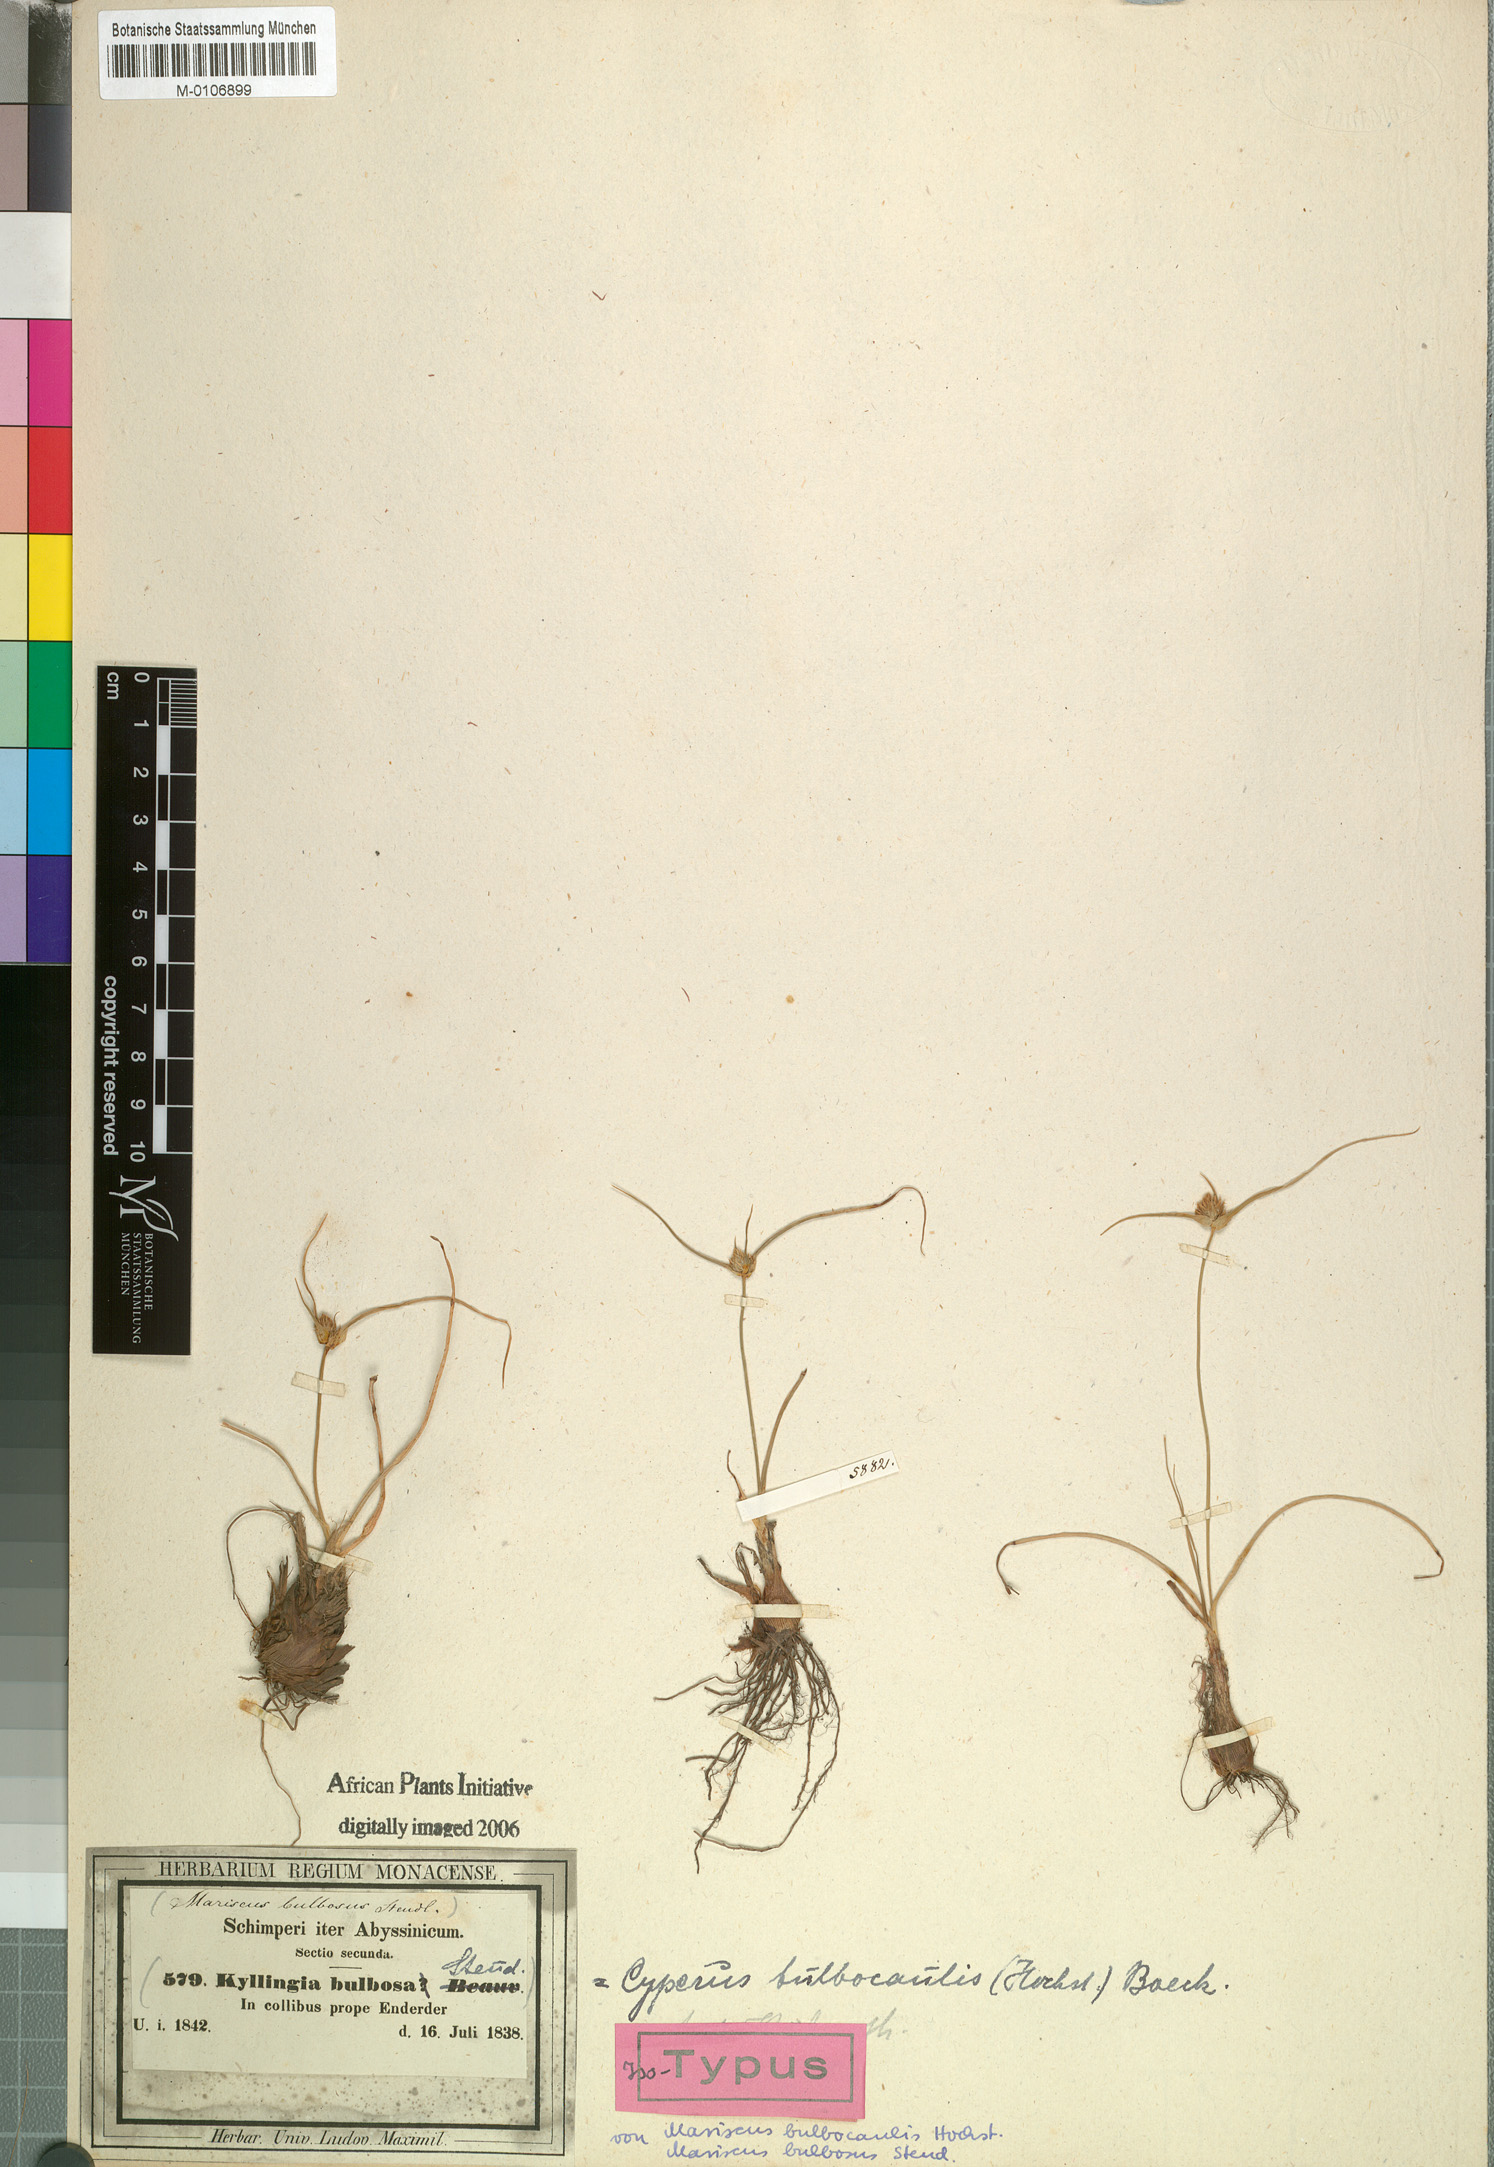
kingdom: Plantae
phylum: Tracheophyta
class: Liliopsida
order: Poales
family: Cyperaceae
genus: Cyperus
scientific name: Cyperus plateilema
